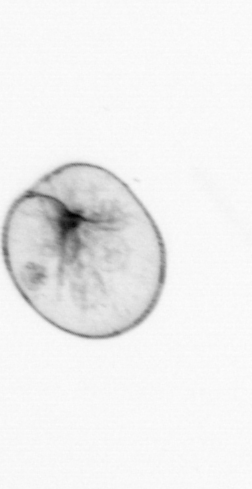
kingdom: Chromista
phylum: Myzozoa
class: Dinophyceae
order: Noctilucales
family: Noctilucaceae
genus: Noctiluca
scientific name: Noctiluca scintillans
